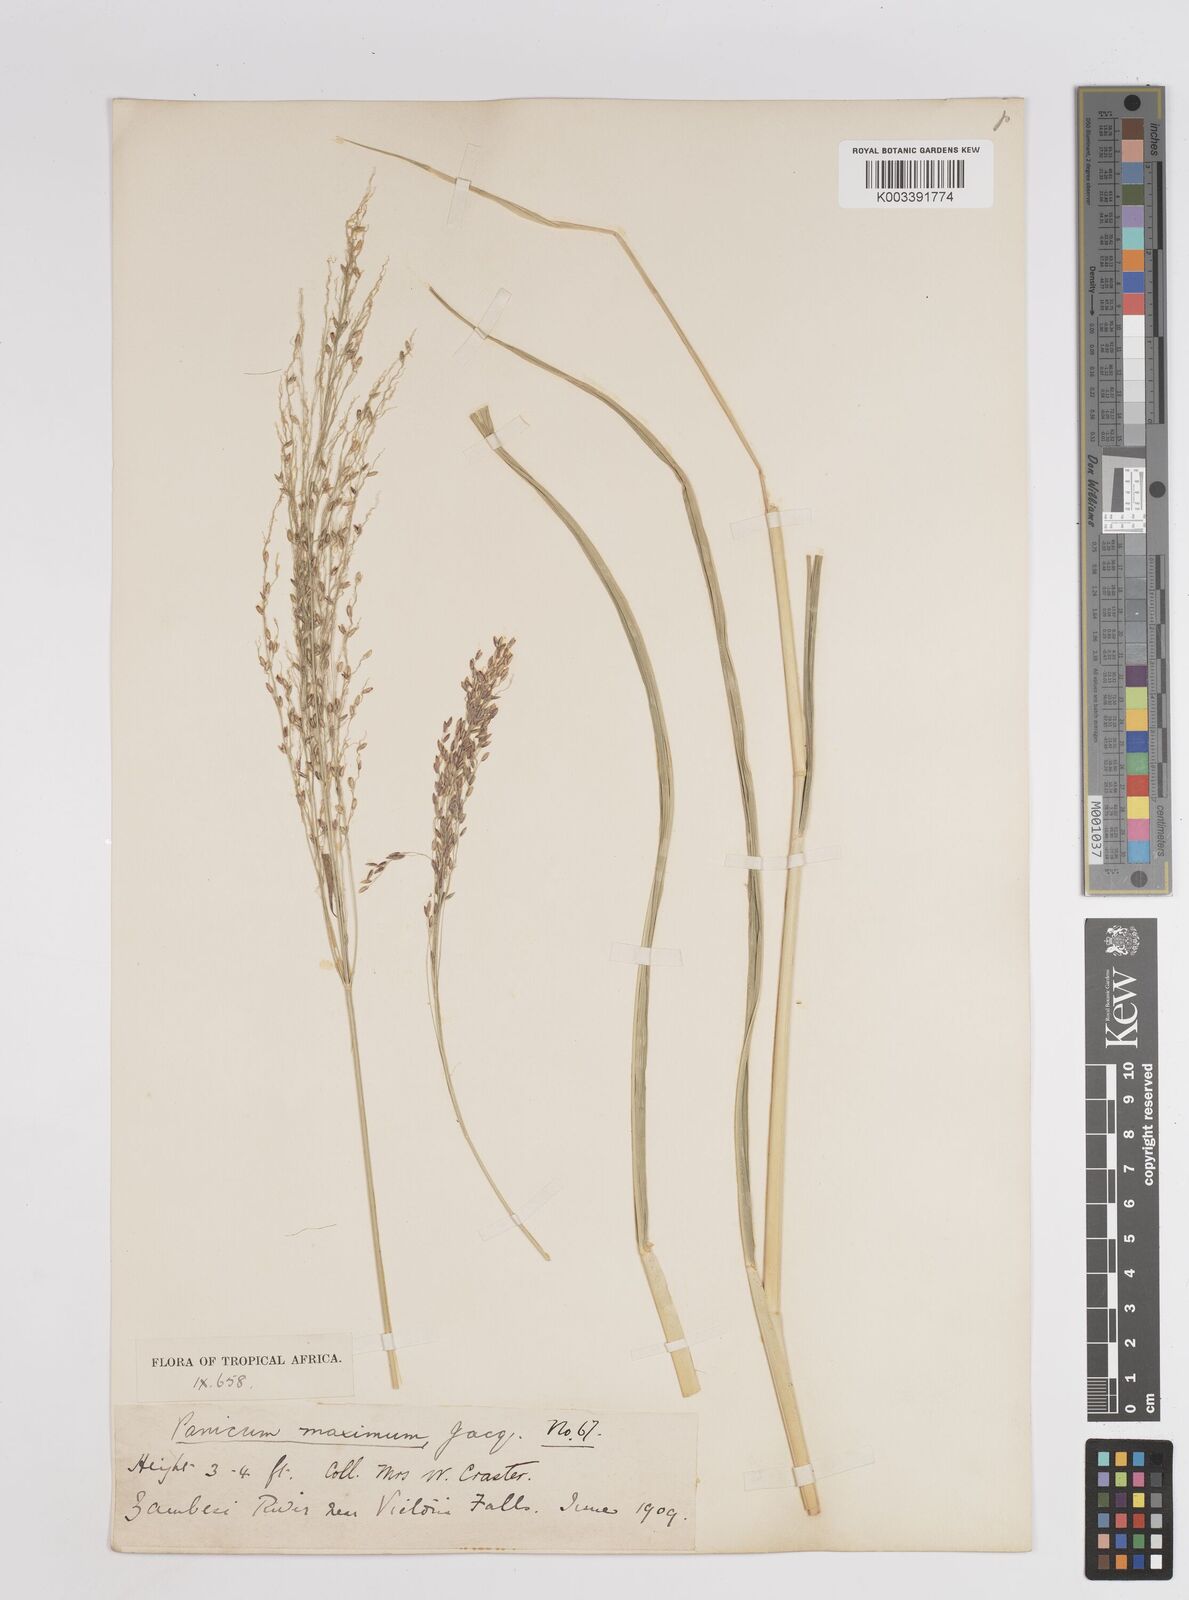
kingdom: Plantae
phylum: Tracheophyta
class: Liliopsida
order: Poales
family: Poaceae
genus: Megathyrsus
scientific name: Megathyrsus maximus
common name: Guineagrass
